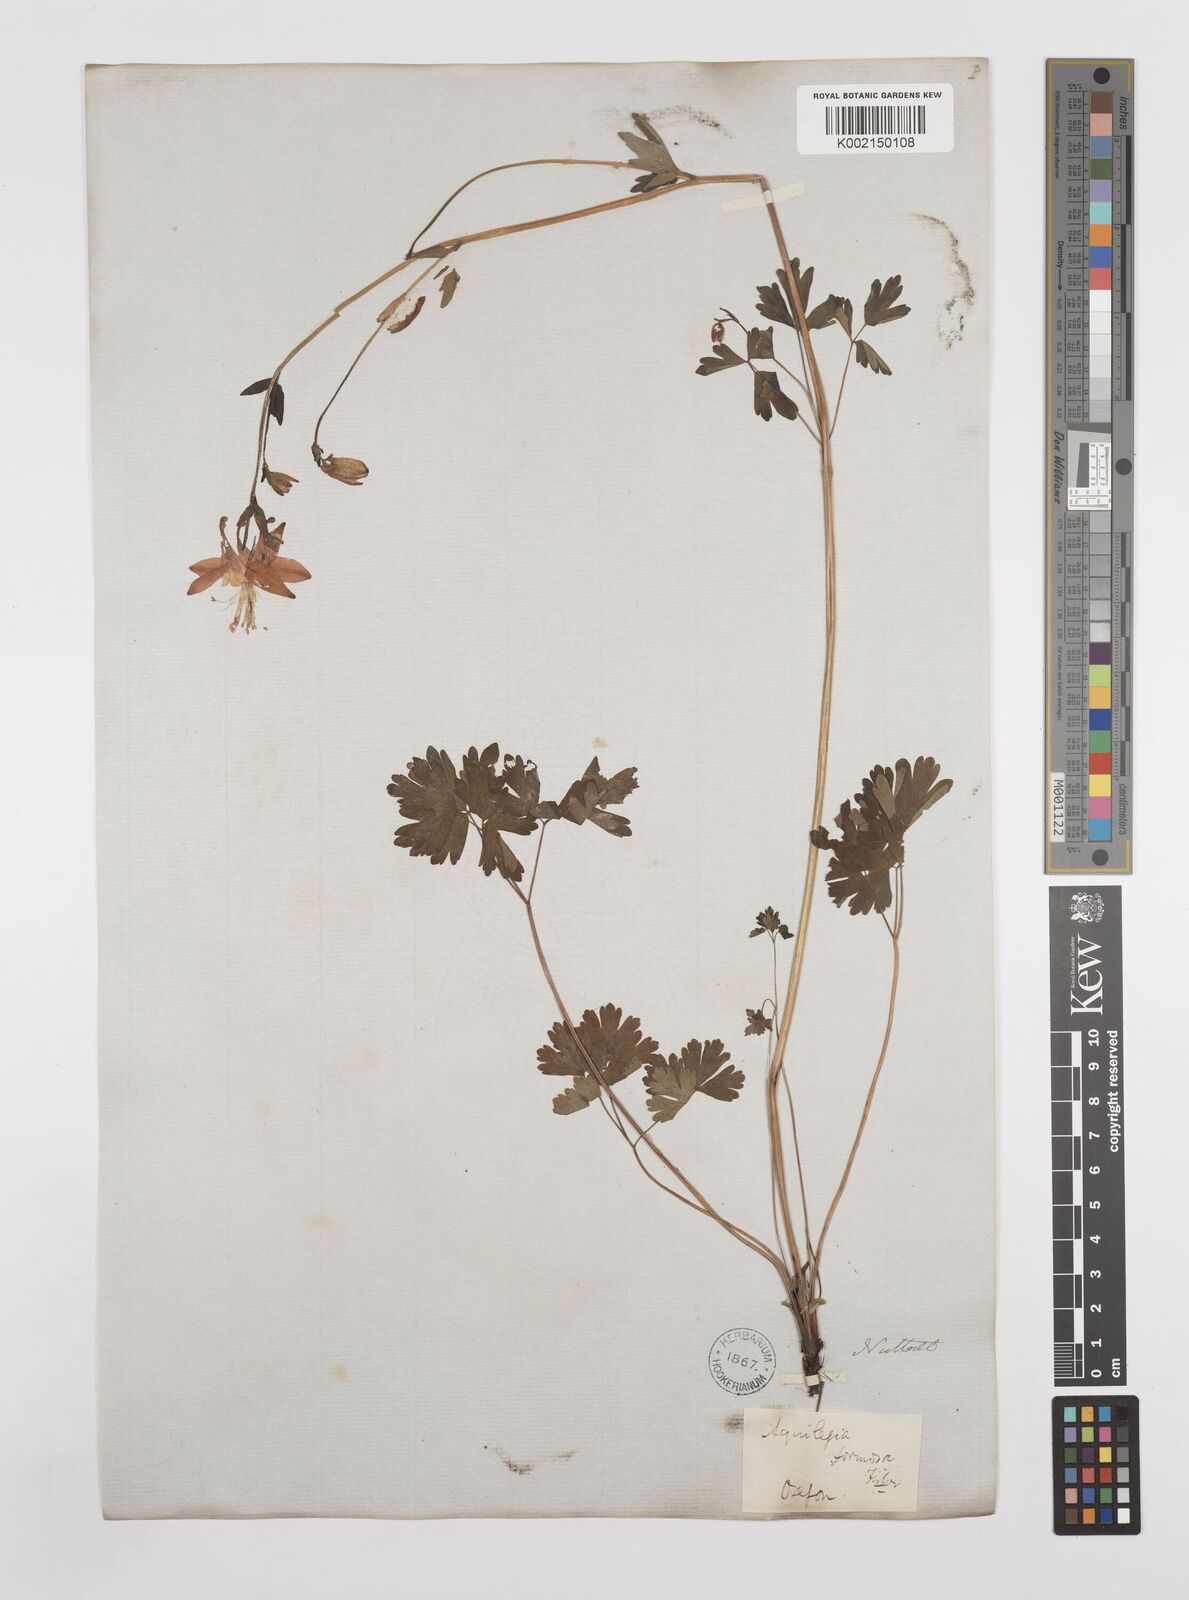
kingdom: Plantae
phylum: Tracheophyta
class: Magnoliopsida
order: Ranunculales
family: Ranunculaceae
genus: Aquilegia
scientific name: Aquilegia
